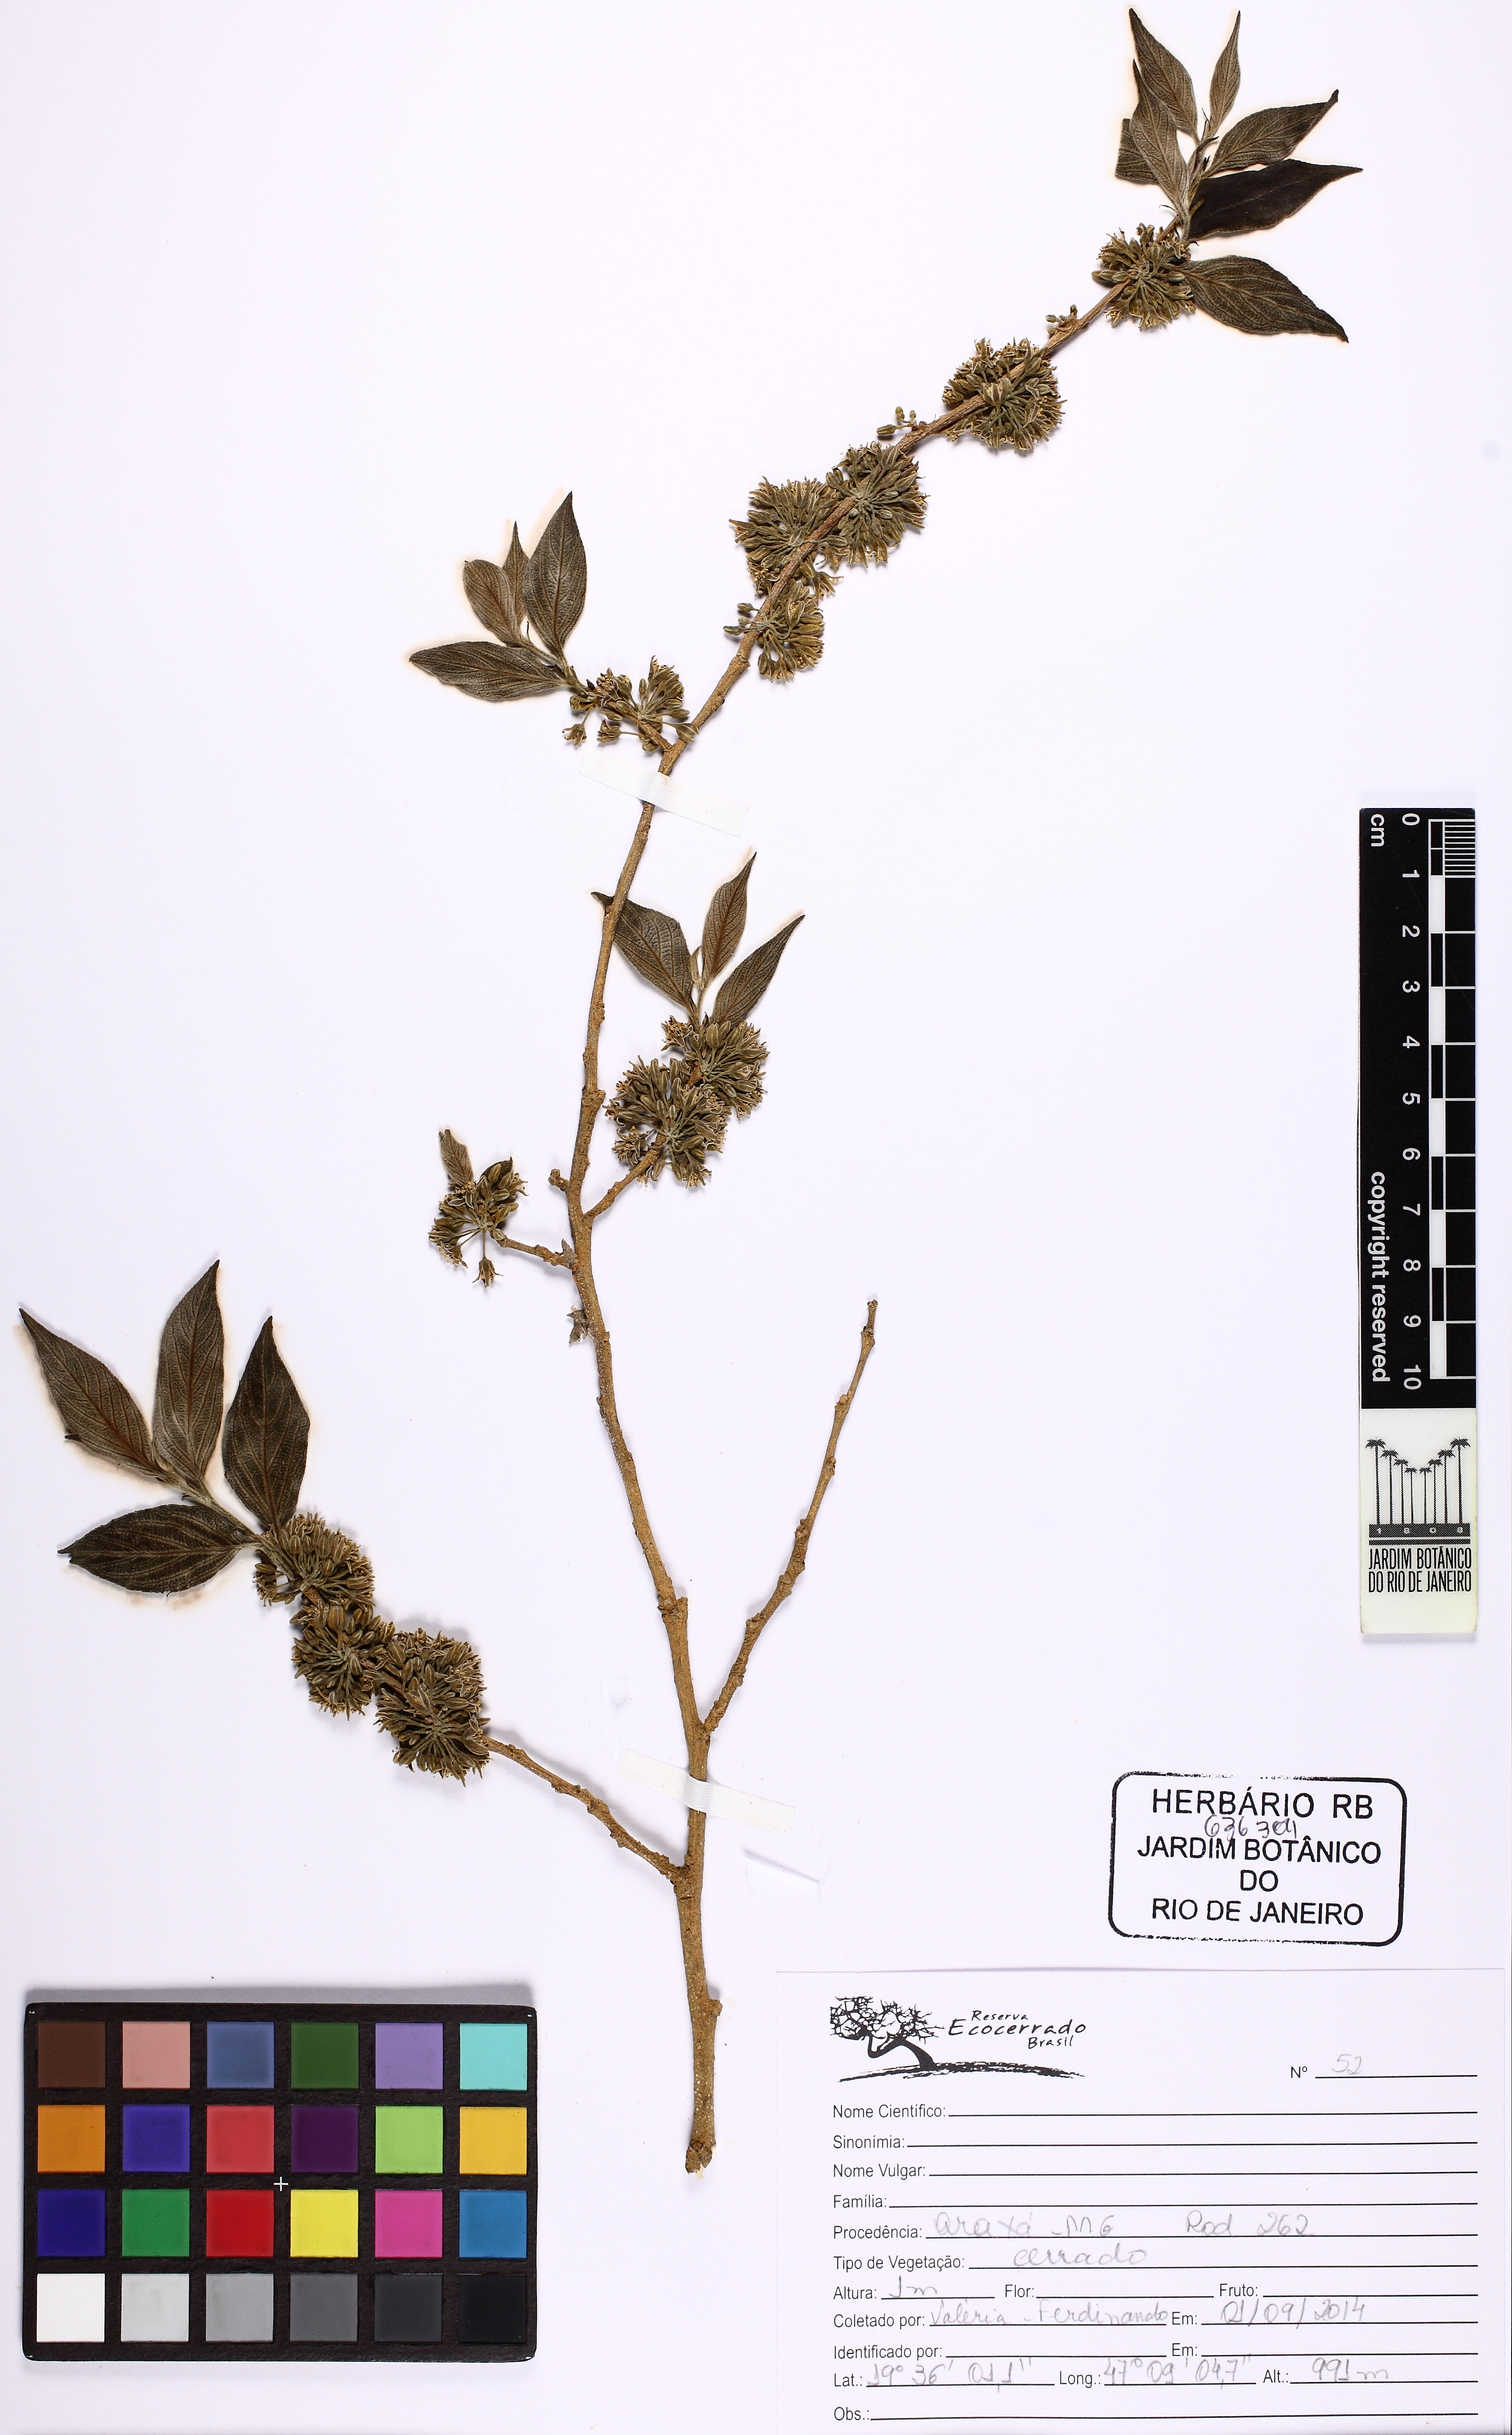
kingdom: Plantae
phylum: Tracheophyta
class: Magnoliopsida
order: Malpighiales
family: Salicaceae
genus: Casearia
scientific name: Casearia lasiophylla
